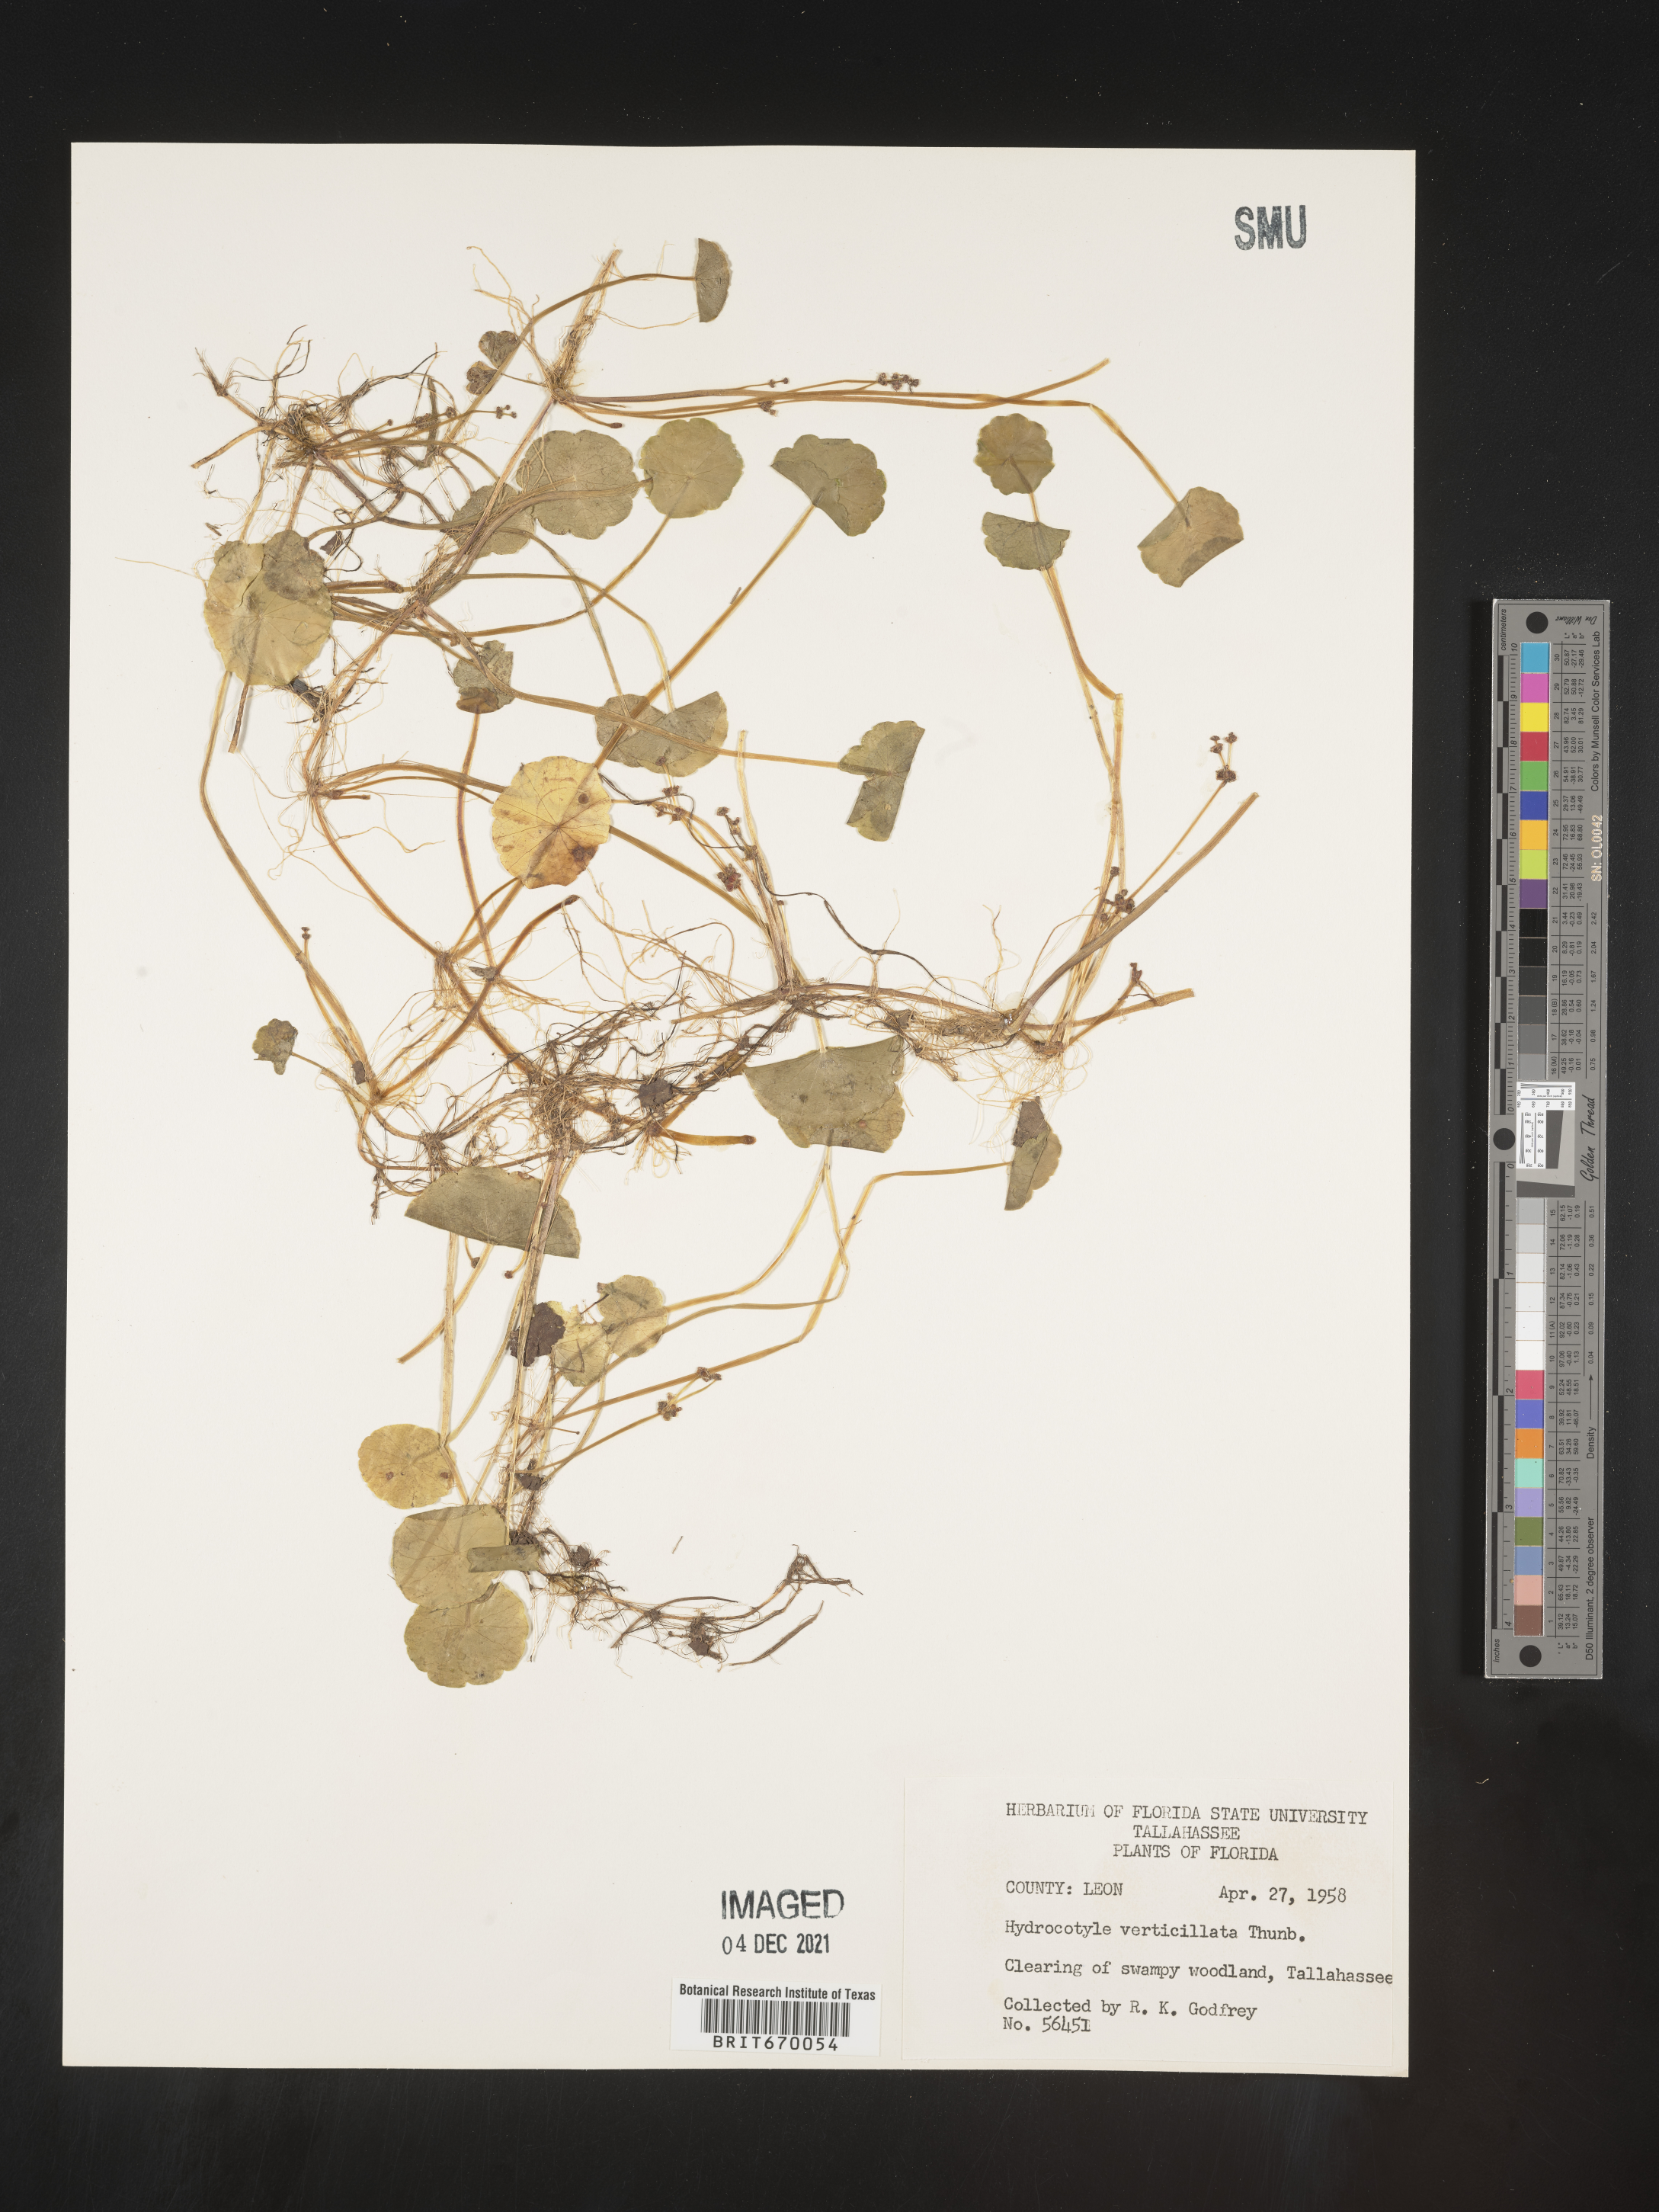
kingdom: Plantae
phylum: Tracheophyta
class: Magnoliopsida
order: Apiales
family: Araliaceae
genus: Hydrocotyle
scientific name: Hydrocotyle verticillata
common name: Whorled marshpennywort
